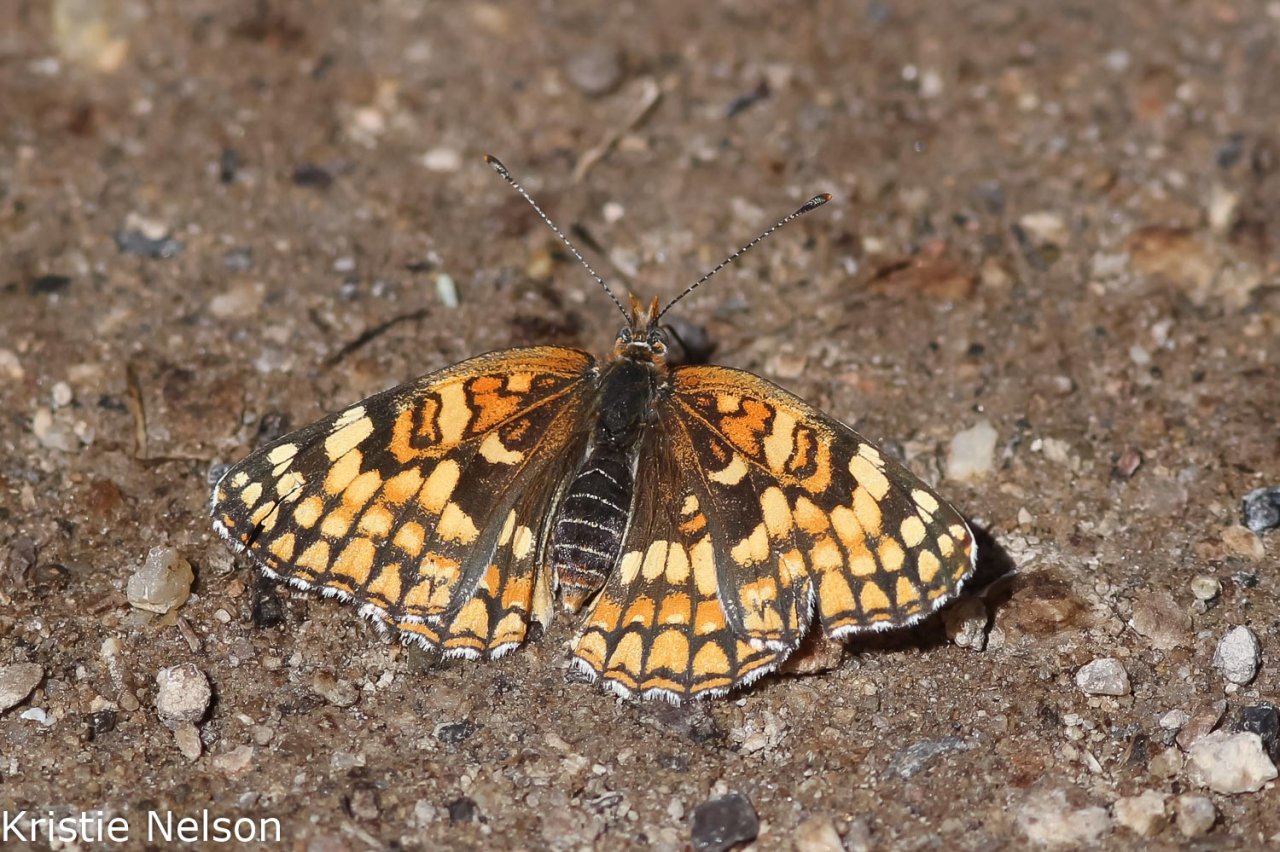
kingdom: Animalia
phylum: Arthropoda
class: Insecta
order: Lepidoptera
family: Nymphalidae
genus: Chlosyne
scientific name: Chlosyne acastus
